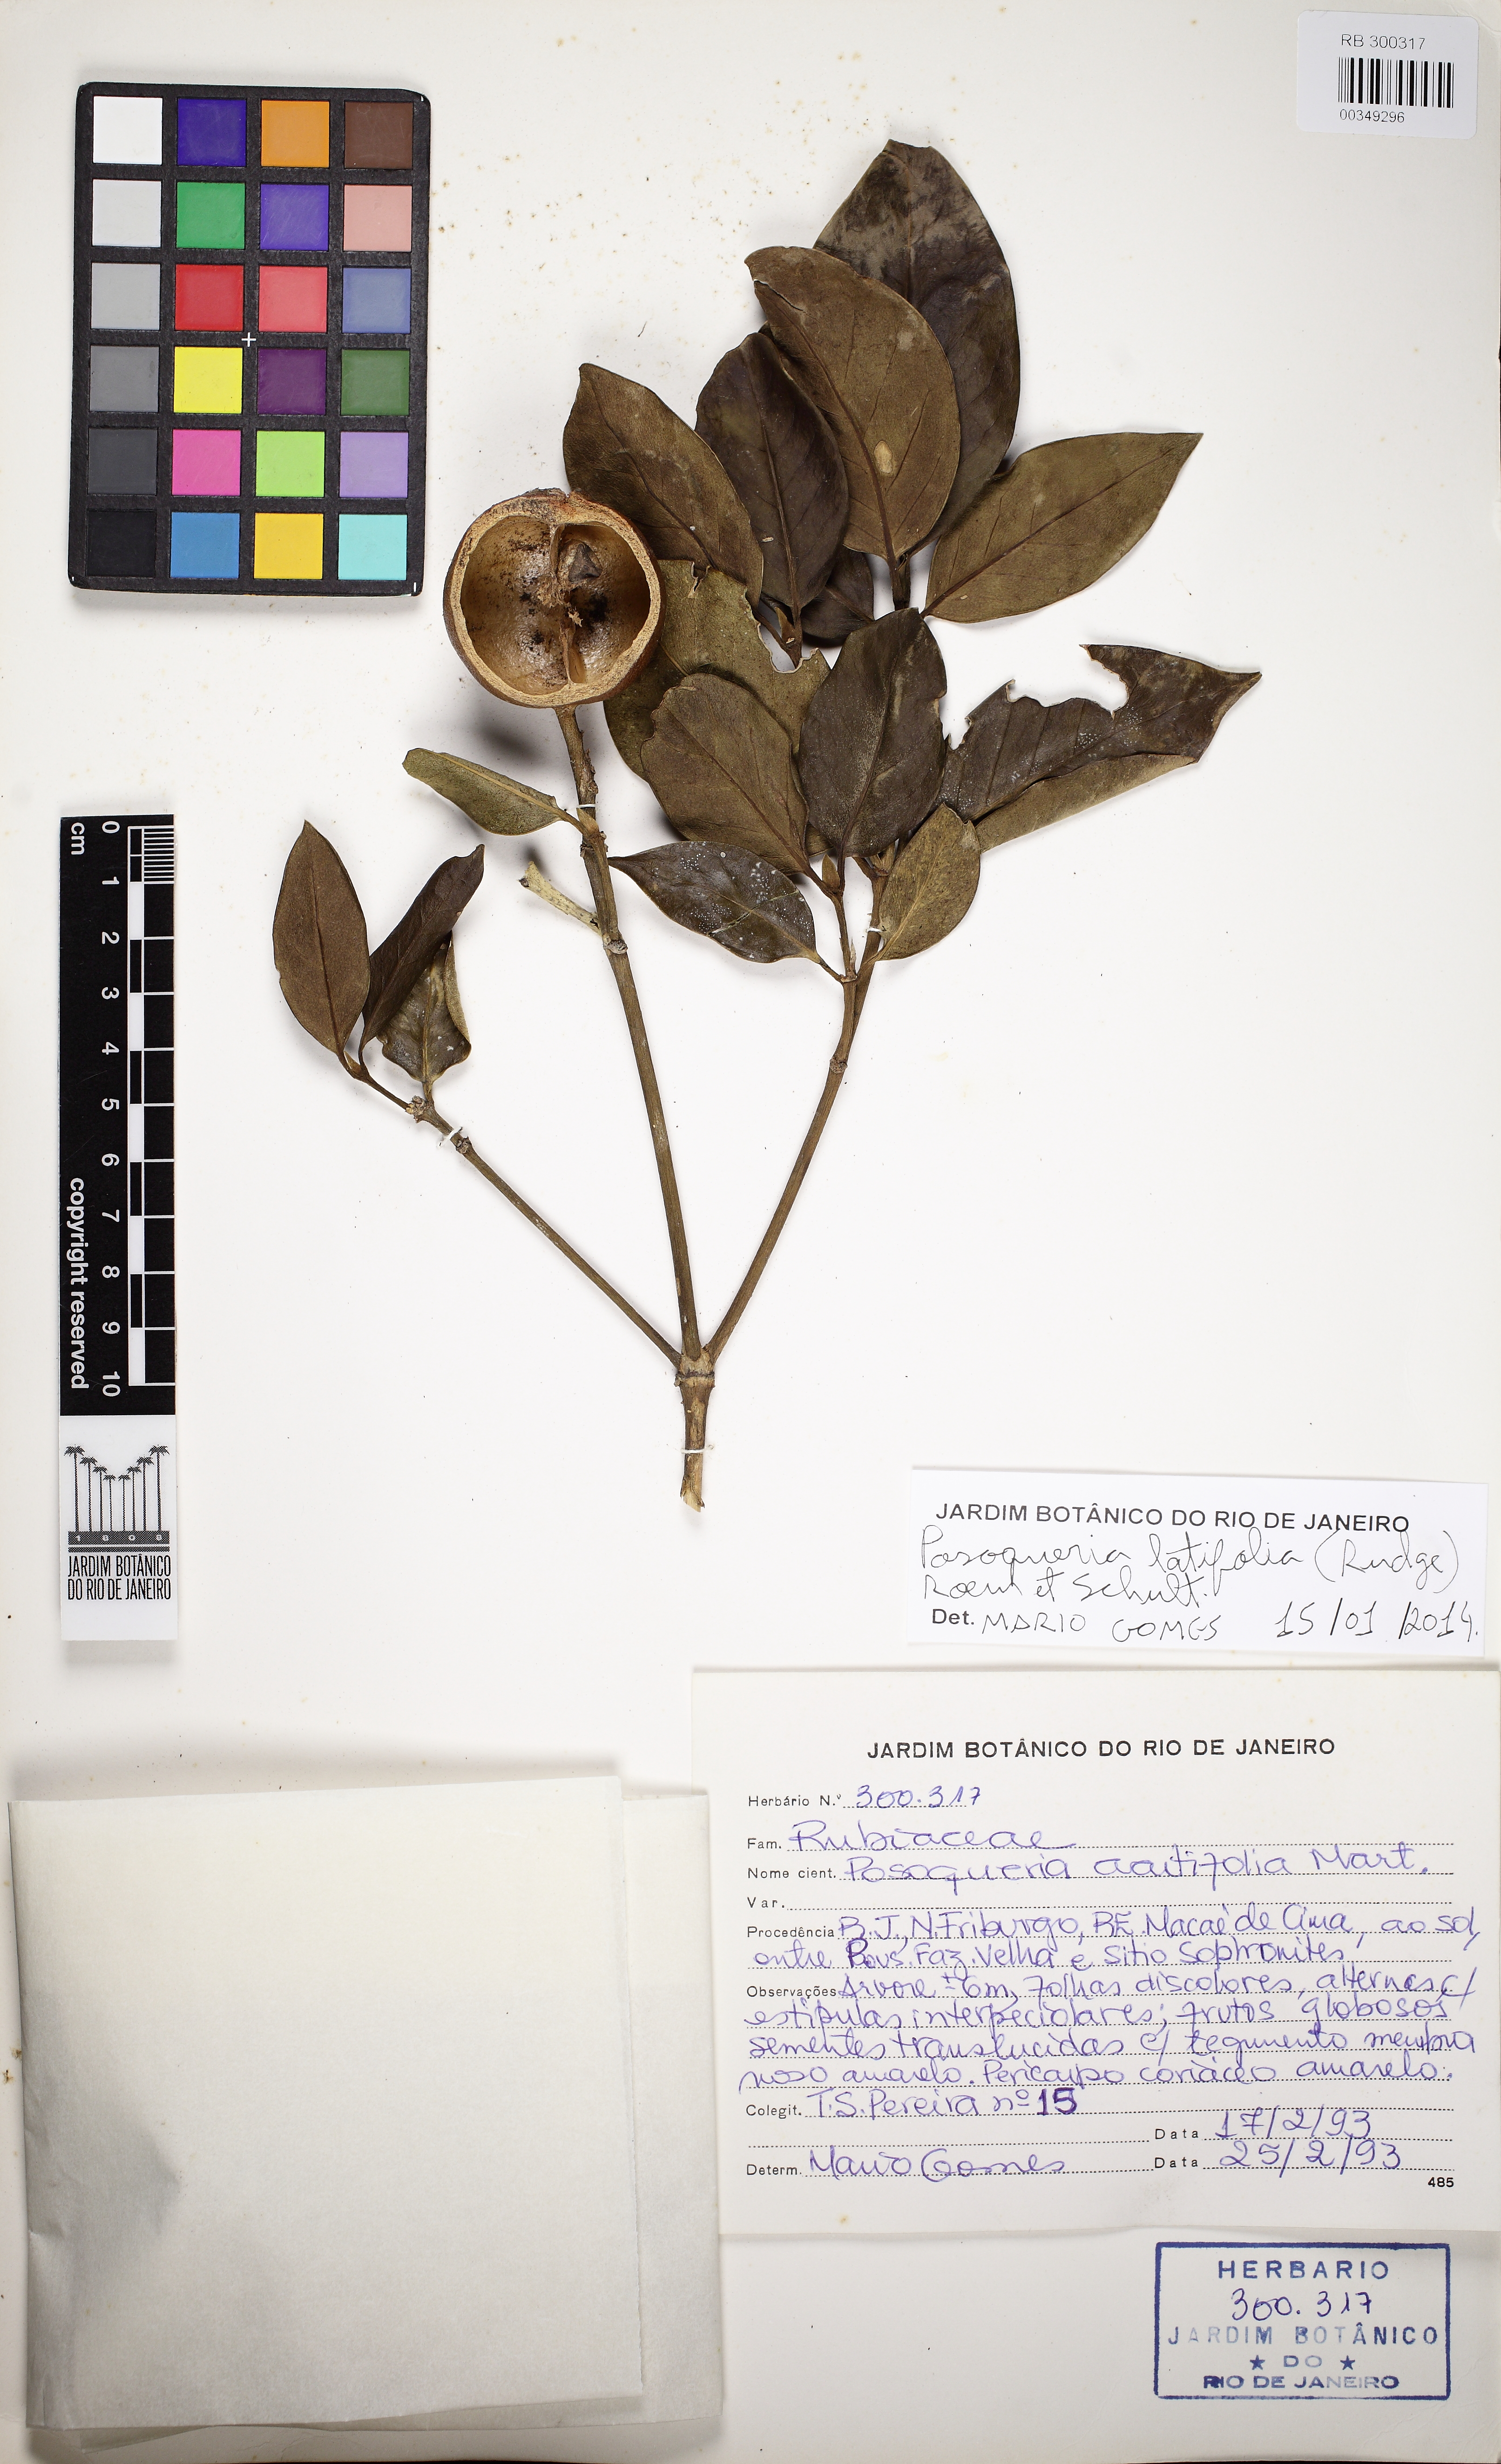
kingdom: Plantae
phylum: Tracheophyta
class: Magnoliopsida
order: Gentianales
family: Rubiaceae
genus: Posoqueria
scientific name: Posoqueria longiflora
